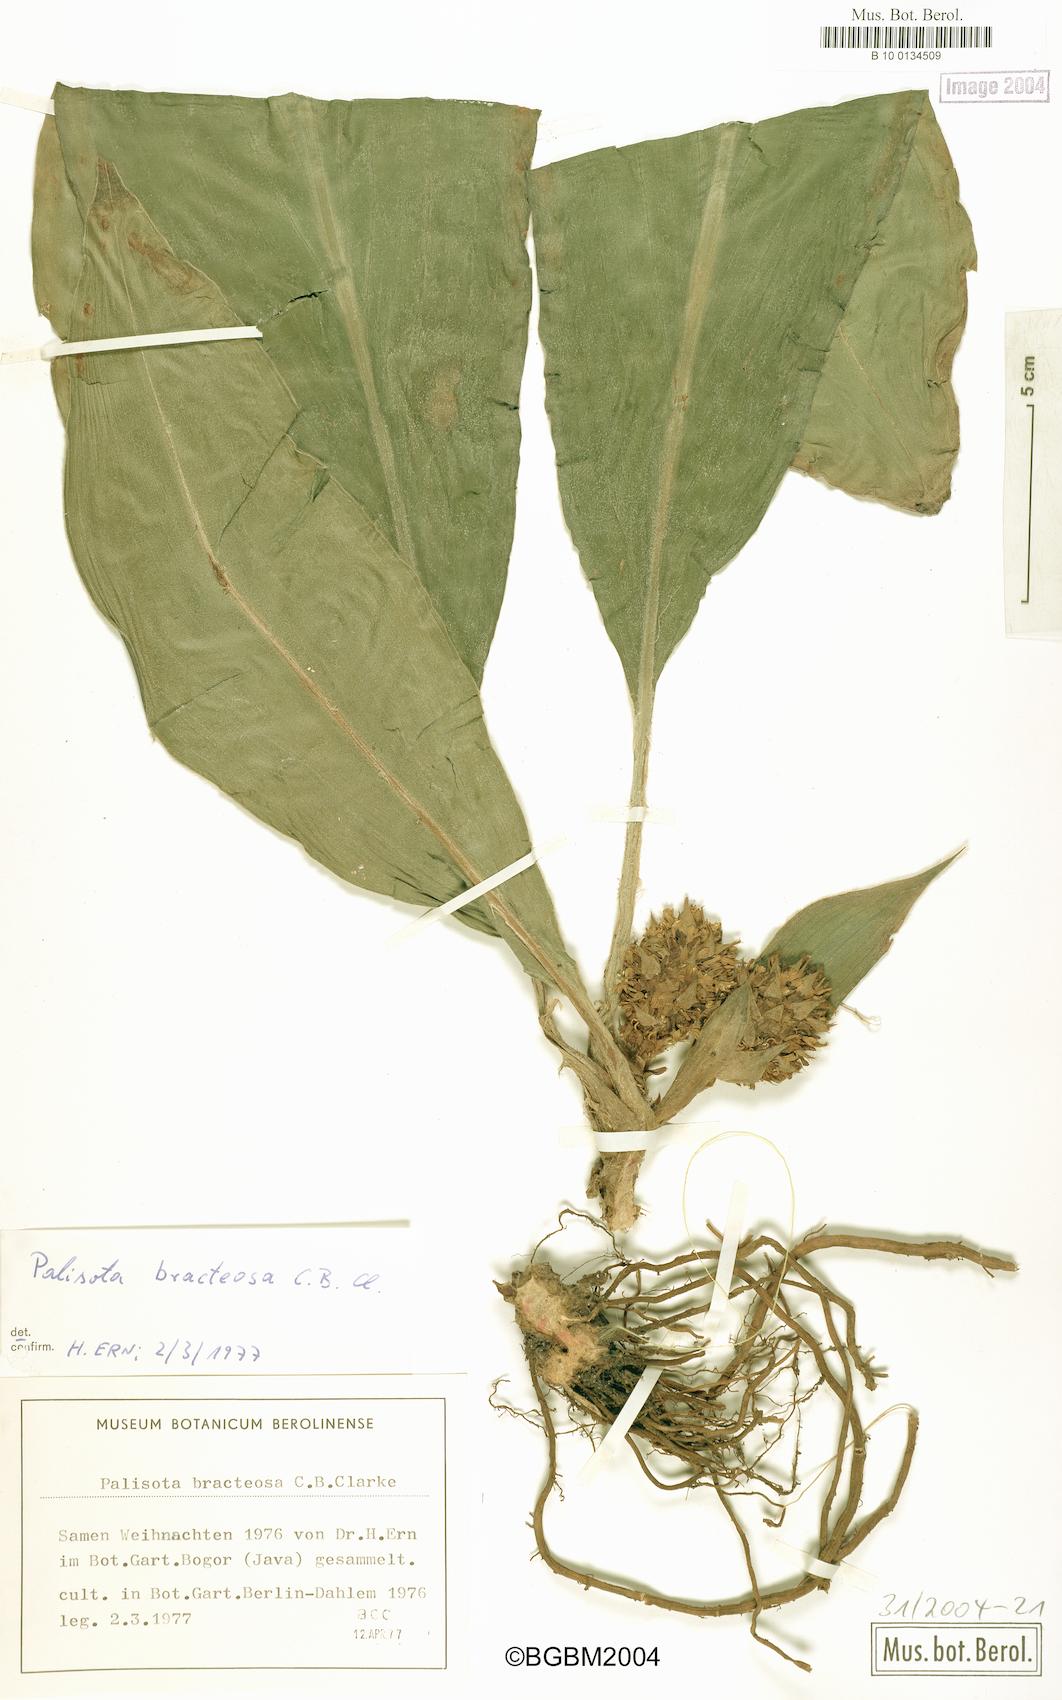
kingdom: Plantae
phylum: Tracheophyta
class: Liliopsida
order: Commelinales
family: Commelinaceae
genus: Palisota
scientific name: Palisota bracteosa
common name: Palisota
